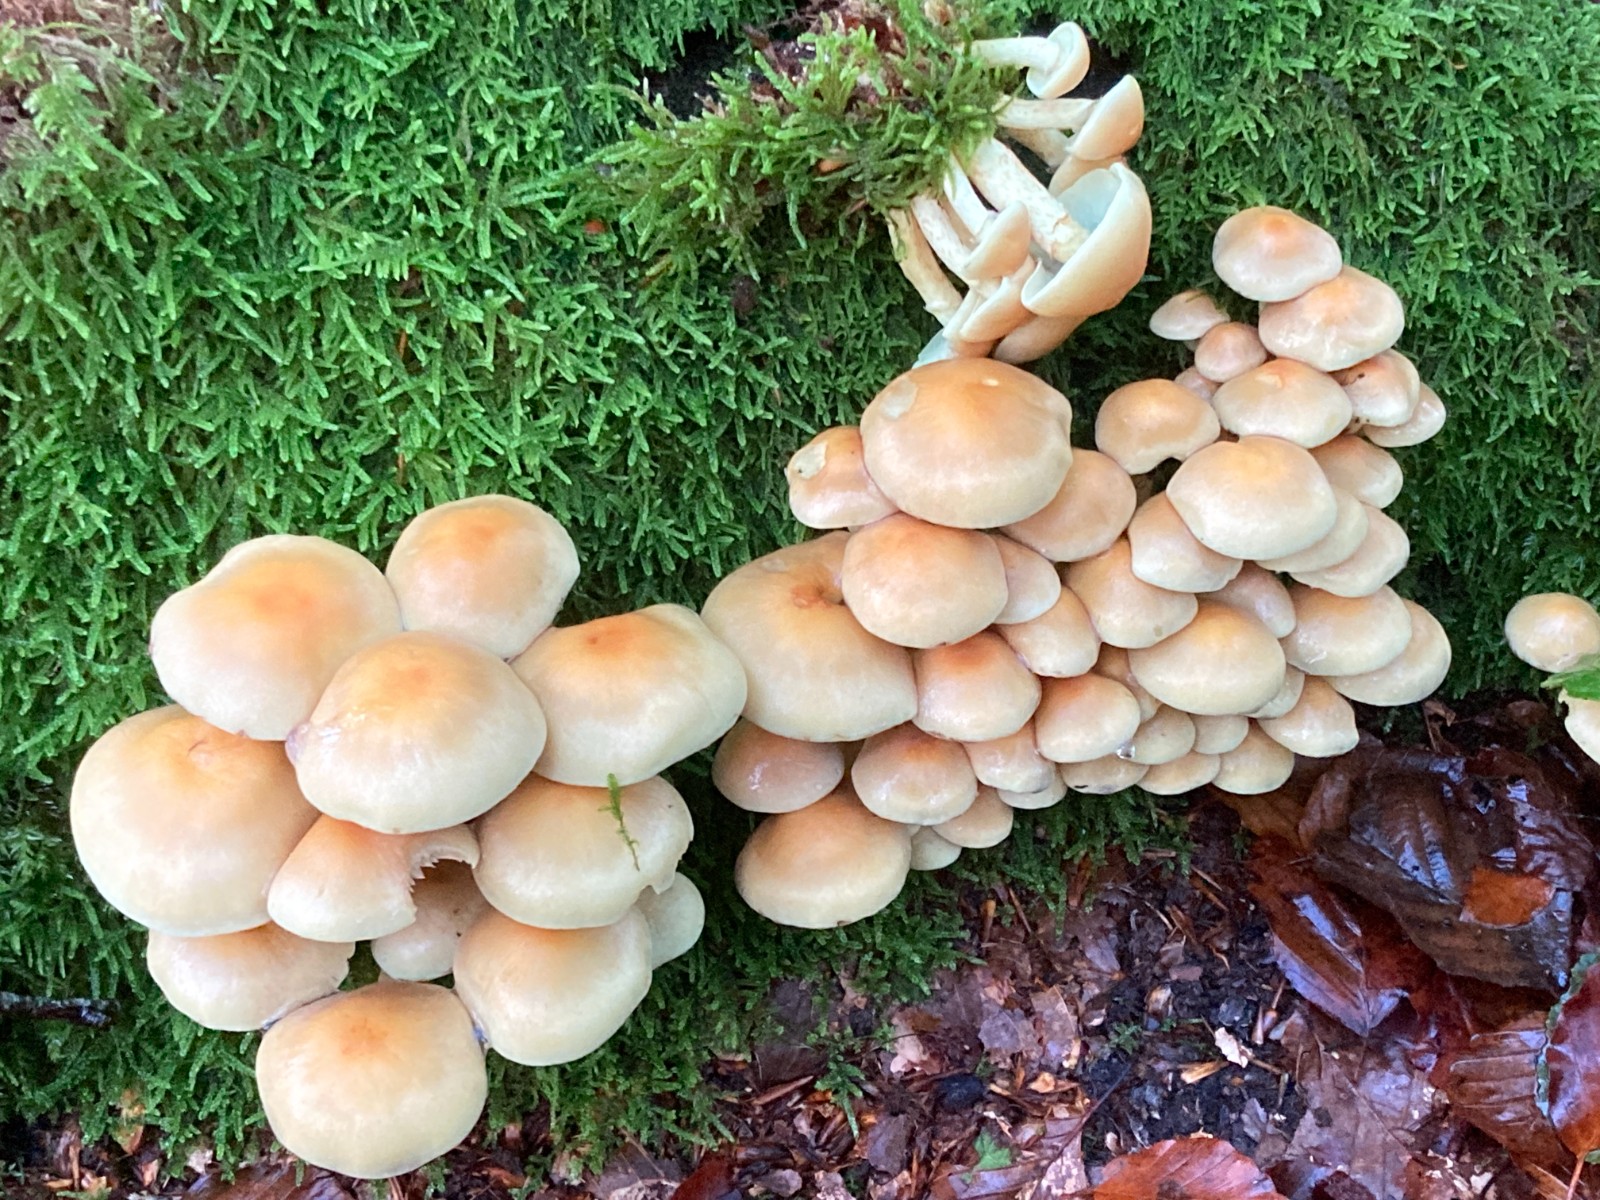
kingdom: Fungi
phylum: Basidiomycota
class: Agaricomycetes
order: Agaricales
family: Strophariaceae
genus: Hypholoma
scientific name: Hypholoma fasciculare
